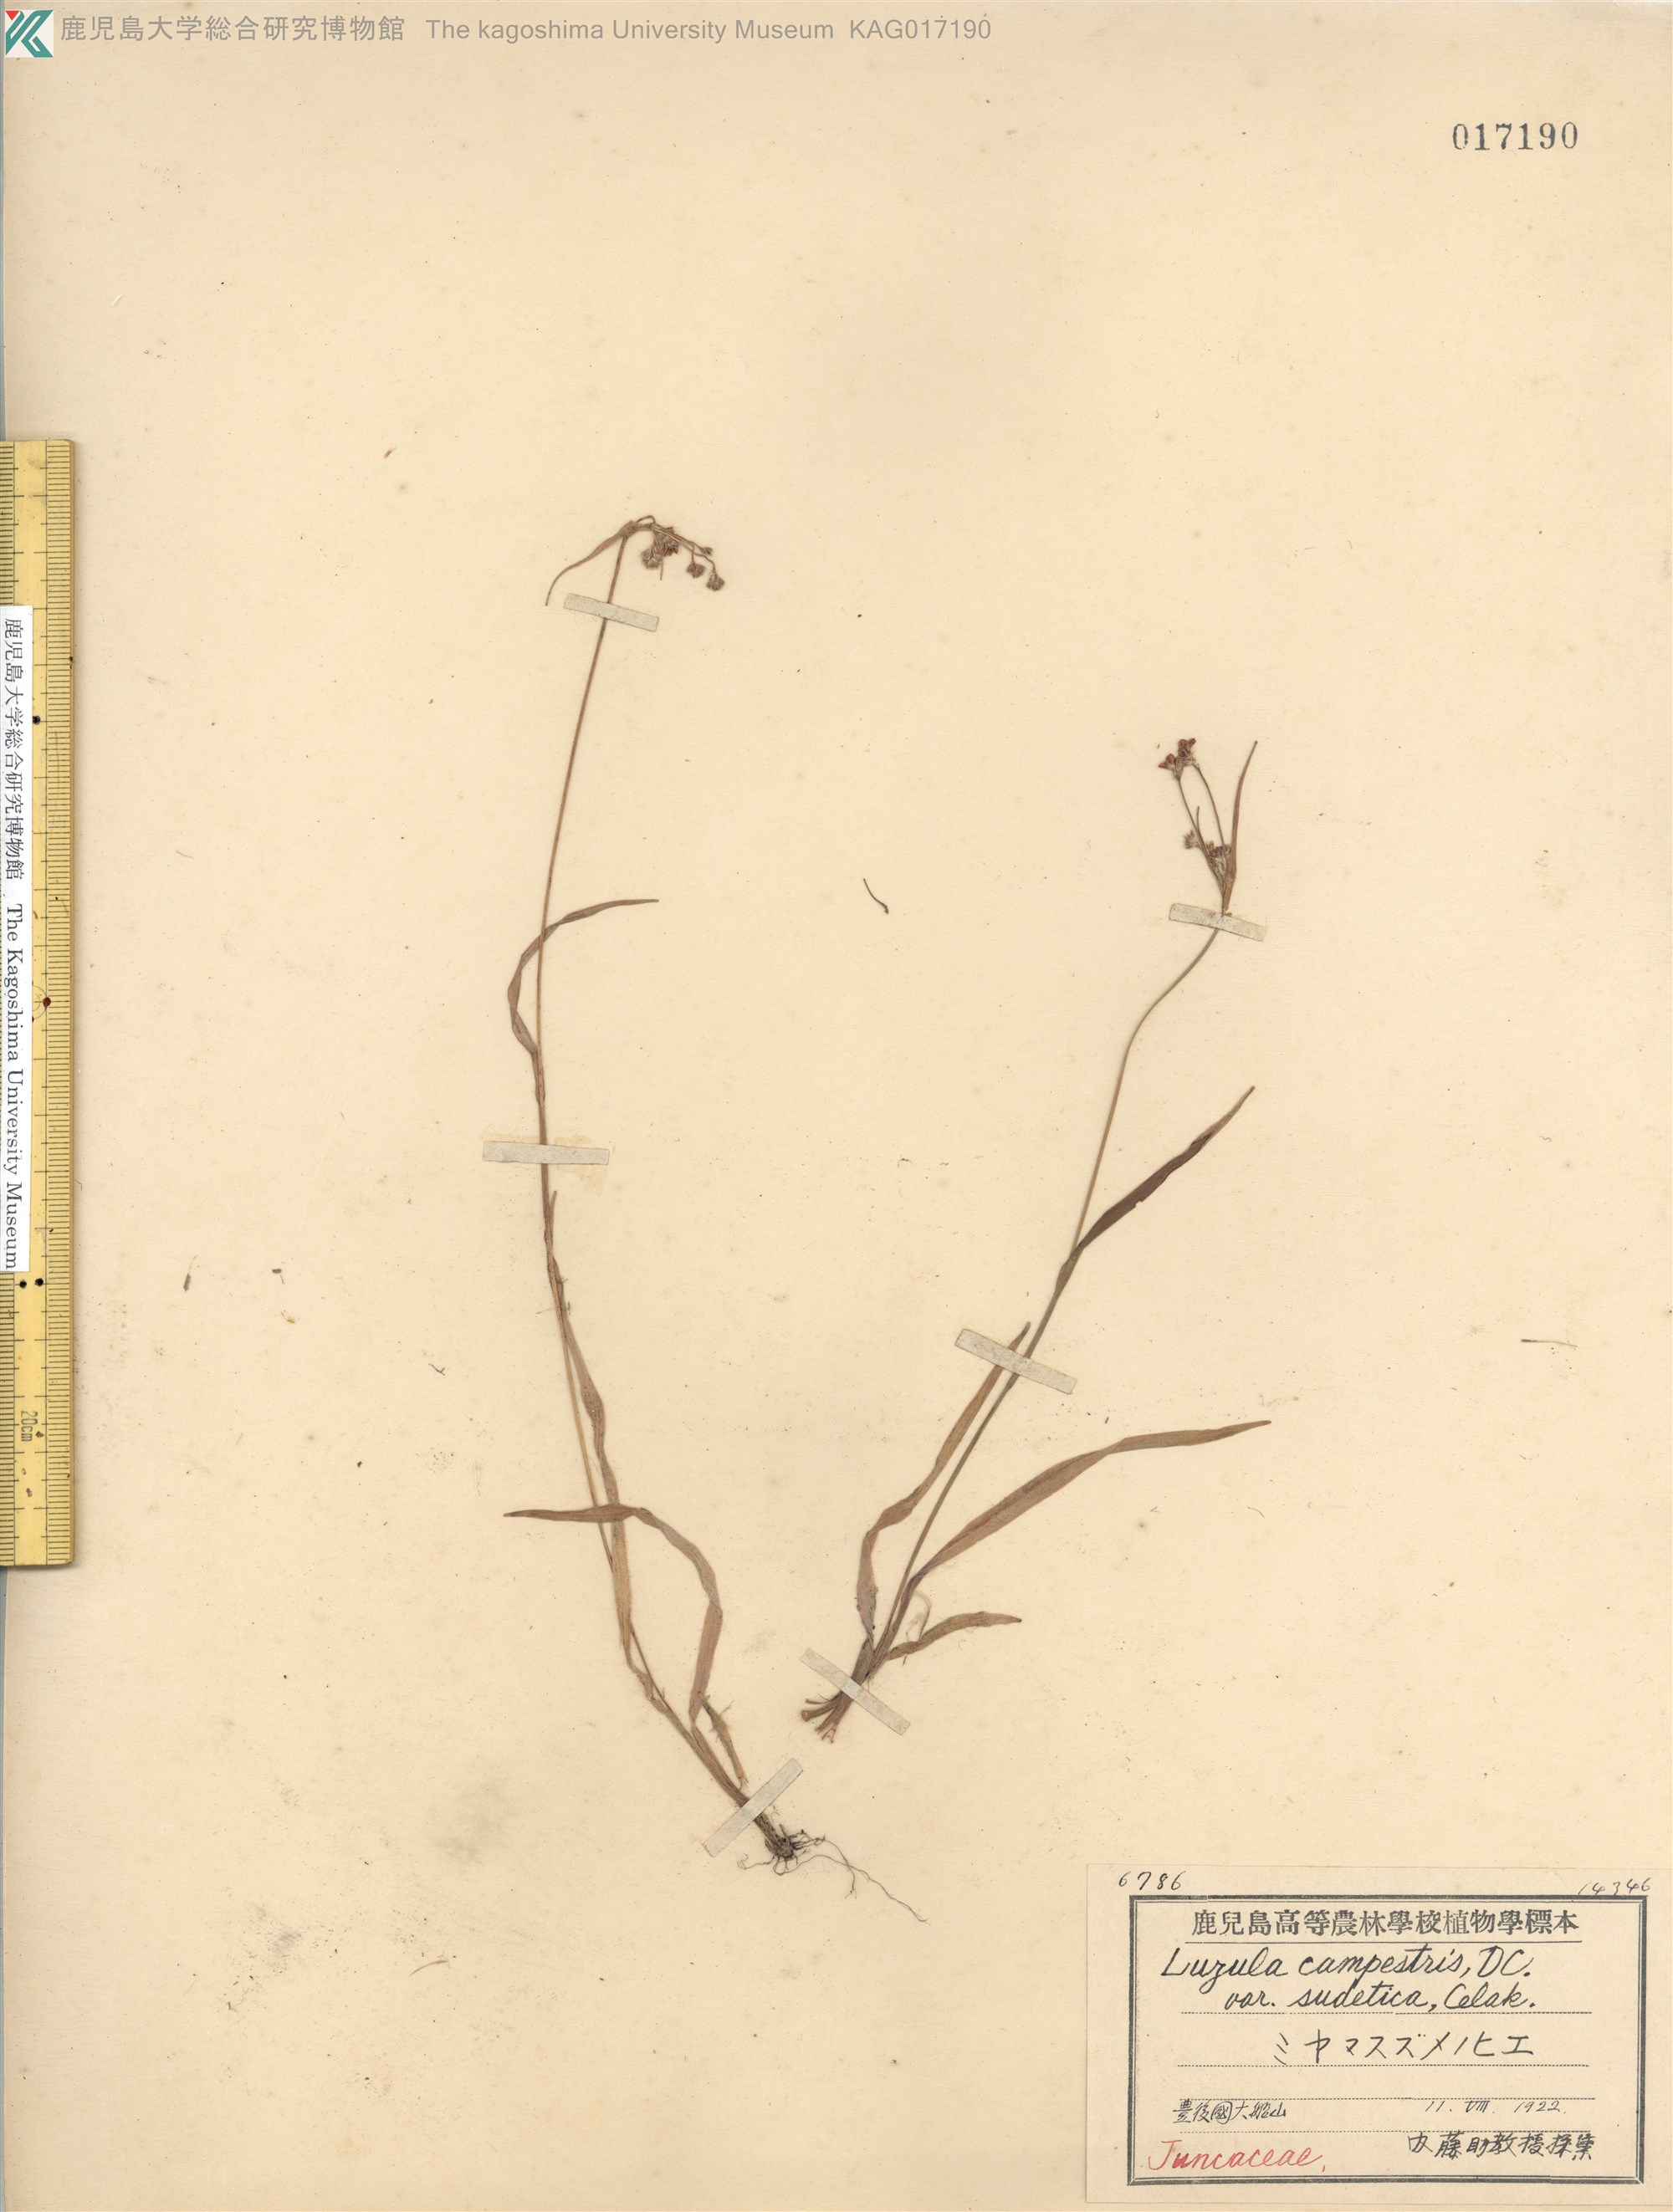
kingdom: Plantae
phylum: Tracheophyta
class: Liliopsida
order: Poales
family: Juncaceae
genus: Luzula
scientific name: Luzula multiflora
